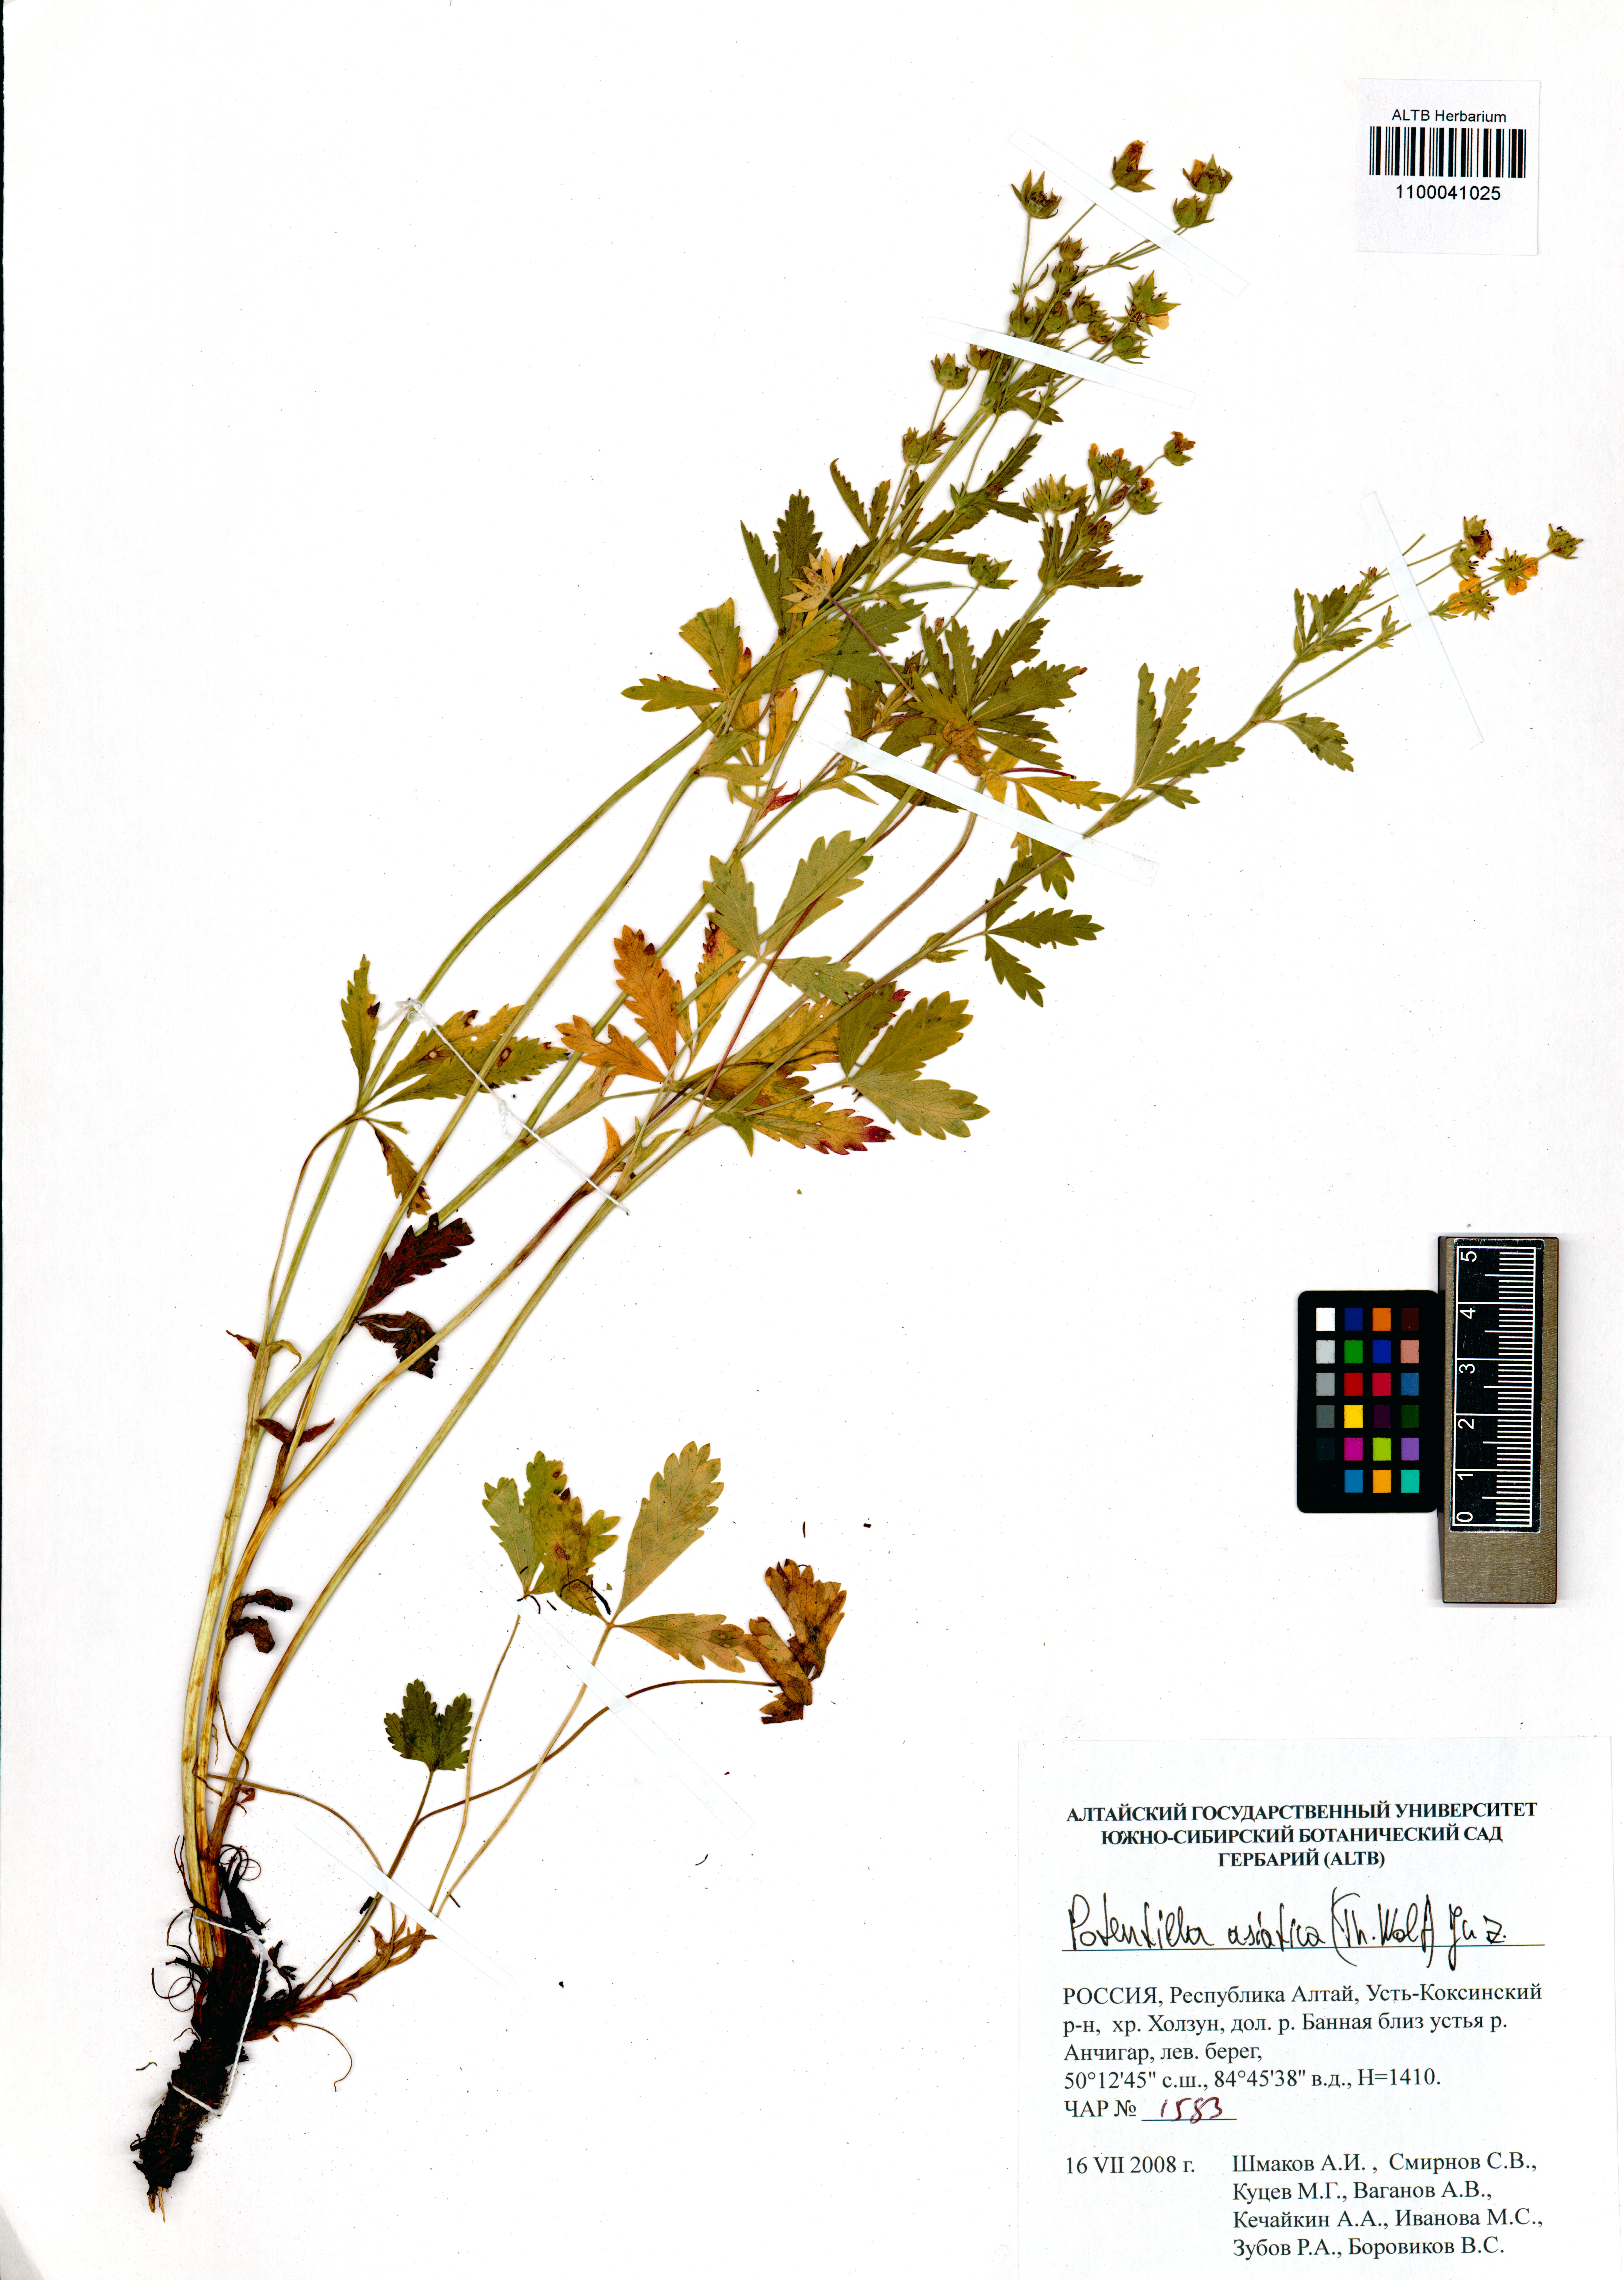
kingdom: Plantae
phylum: Tracheophyta
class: Magnoliopsida
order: Rosales
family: Rosaceae
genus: Potentilla
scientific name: Potentilla asiatica
